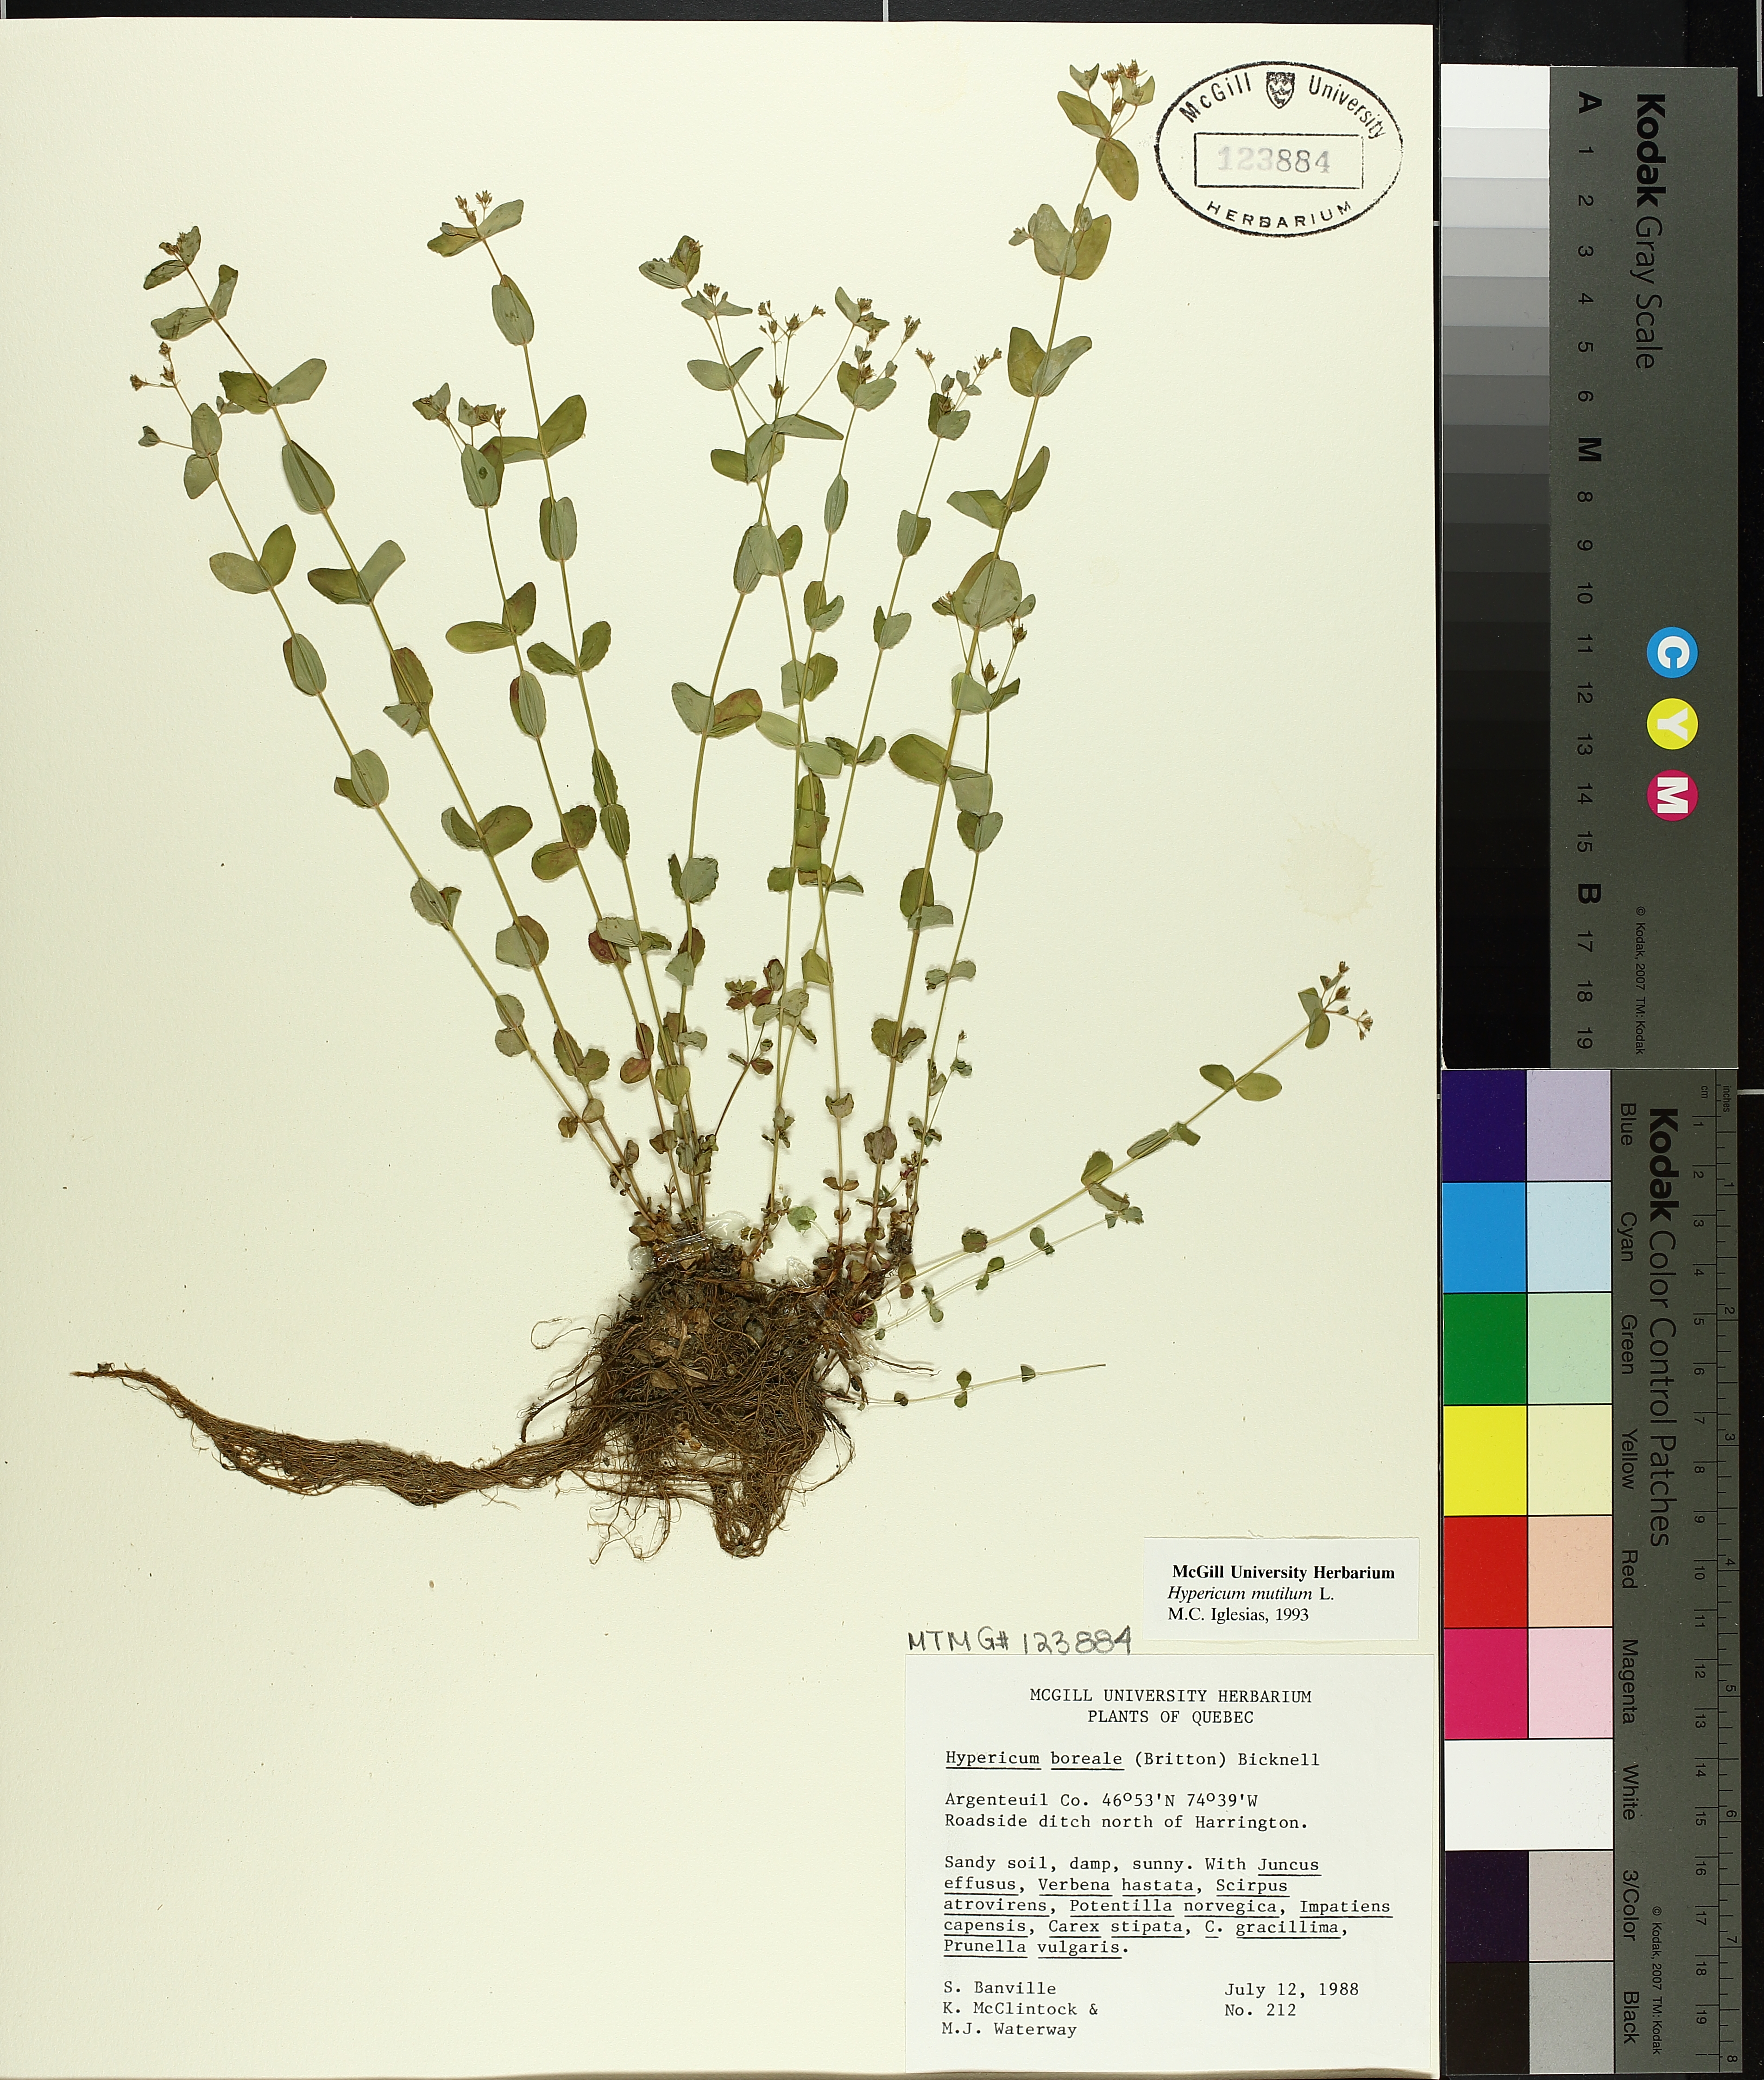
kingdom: Plantae
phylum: Tracheophyta
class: Magnoliopsida
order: Malpighiales
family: Hypericaceae
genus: Hypericum
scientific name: Hypericum mutilum
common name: Dwarf st. john's-wort
